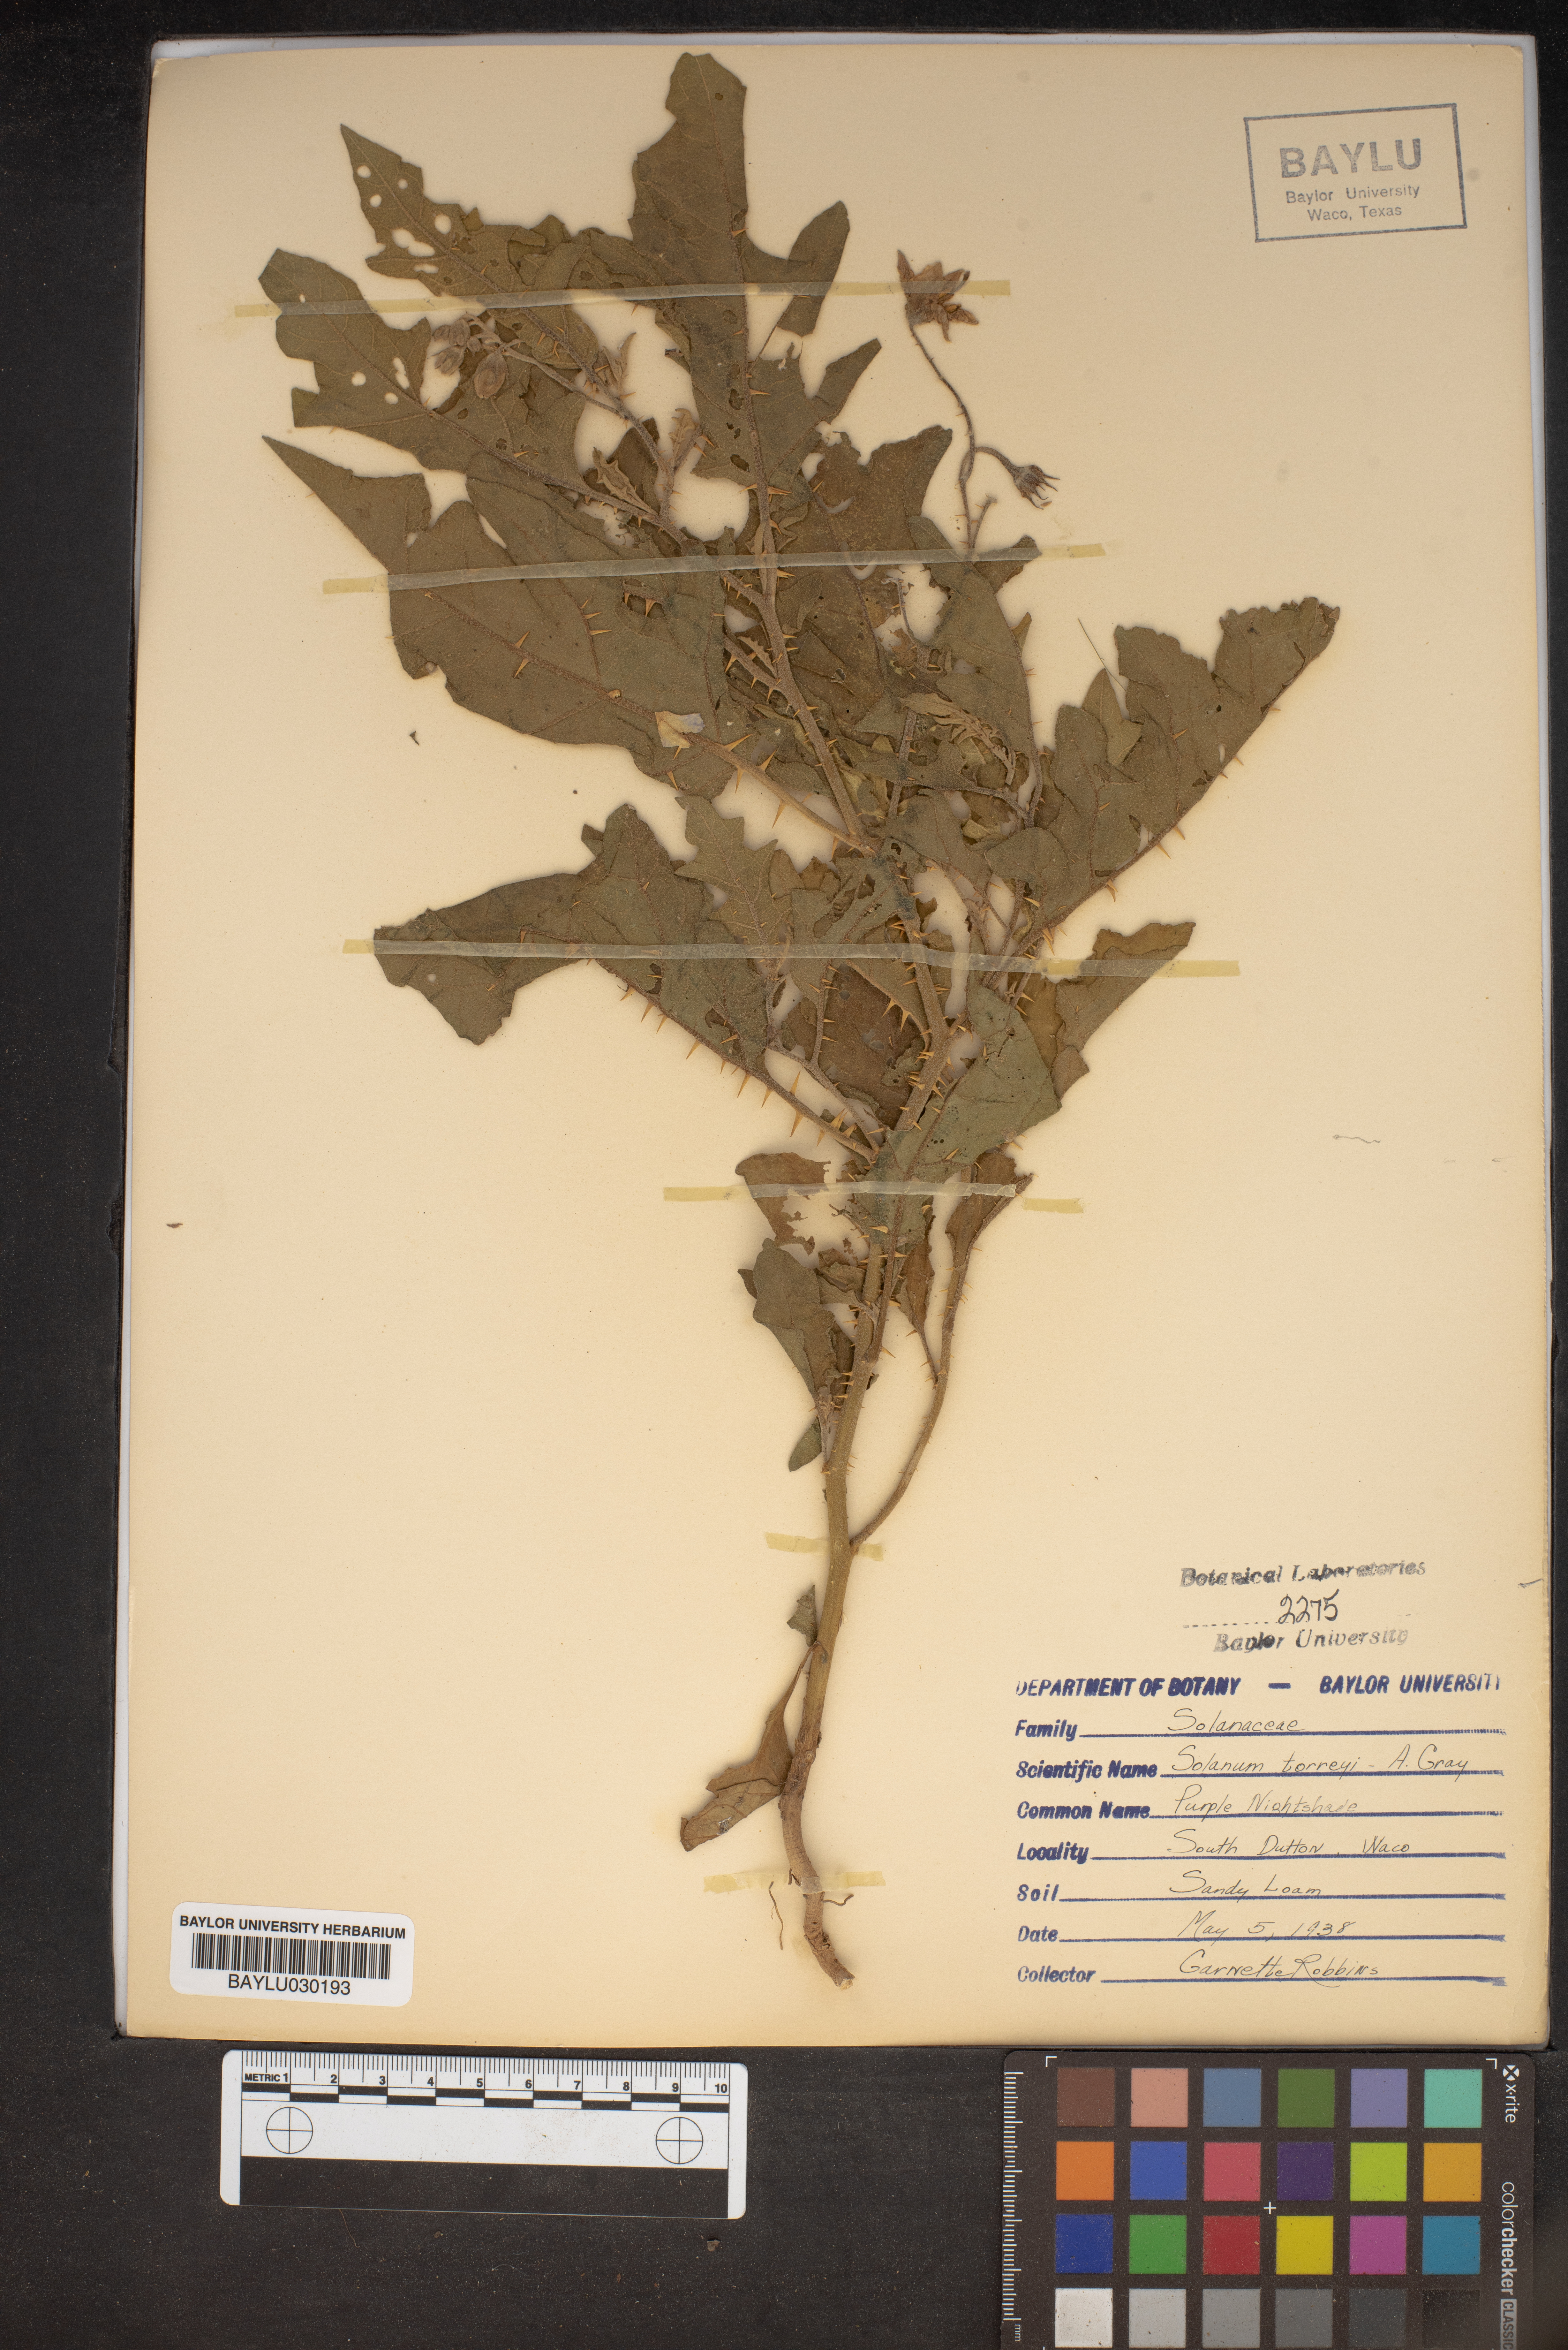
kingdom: Plantae
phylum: Tracheophyta
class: Magnoliopsida
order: Solanales
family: Solanaceae
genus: Solanum
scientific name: Solanum dimidiatum
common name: Carolina horse-nettle
